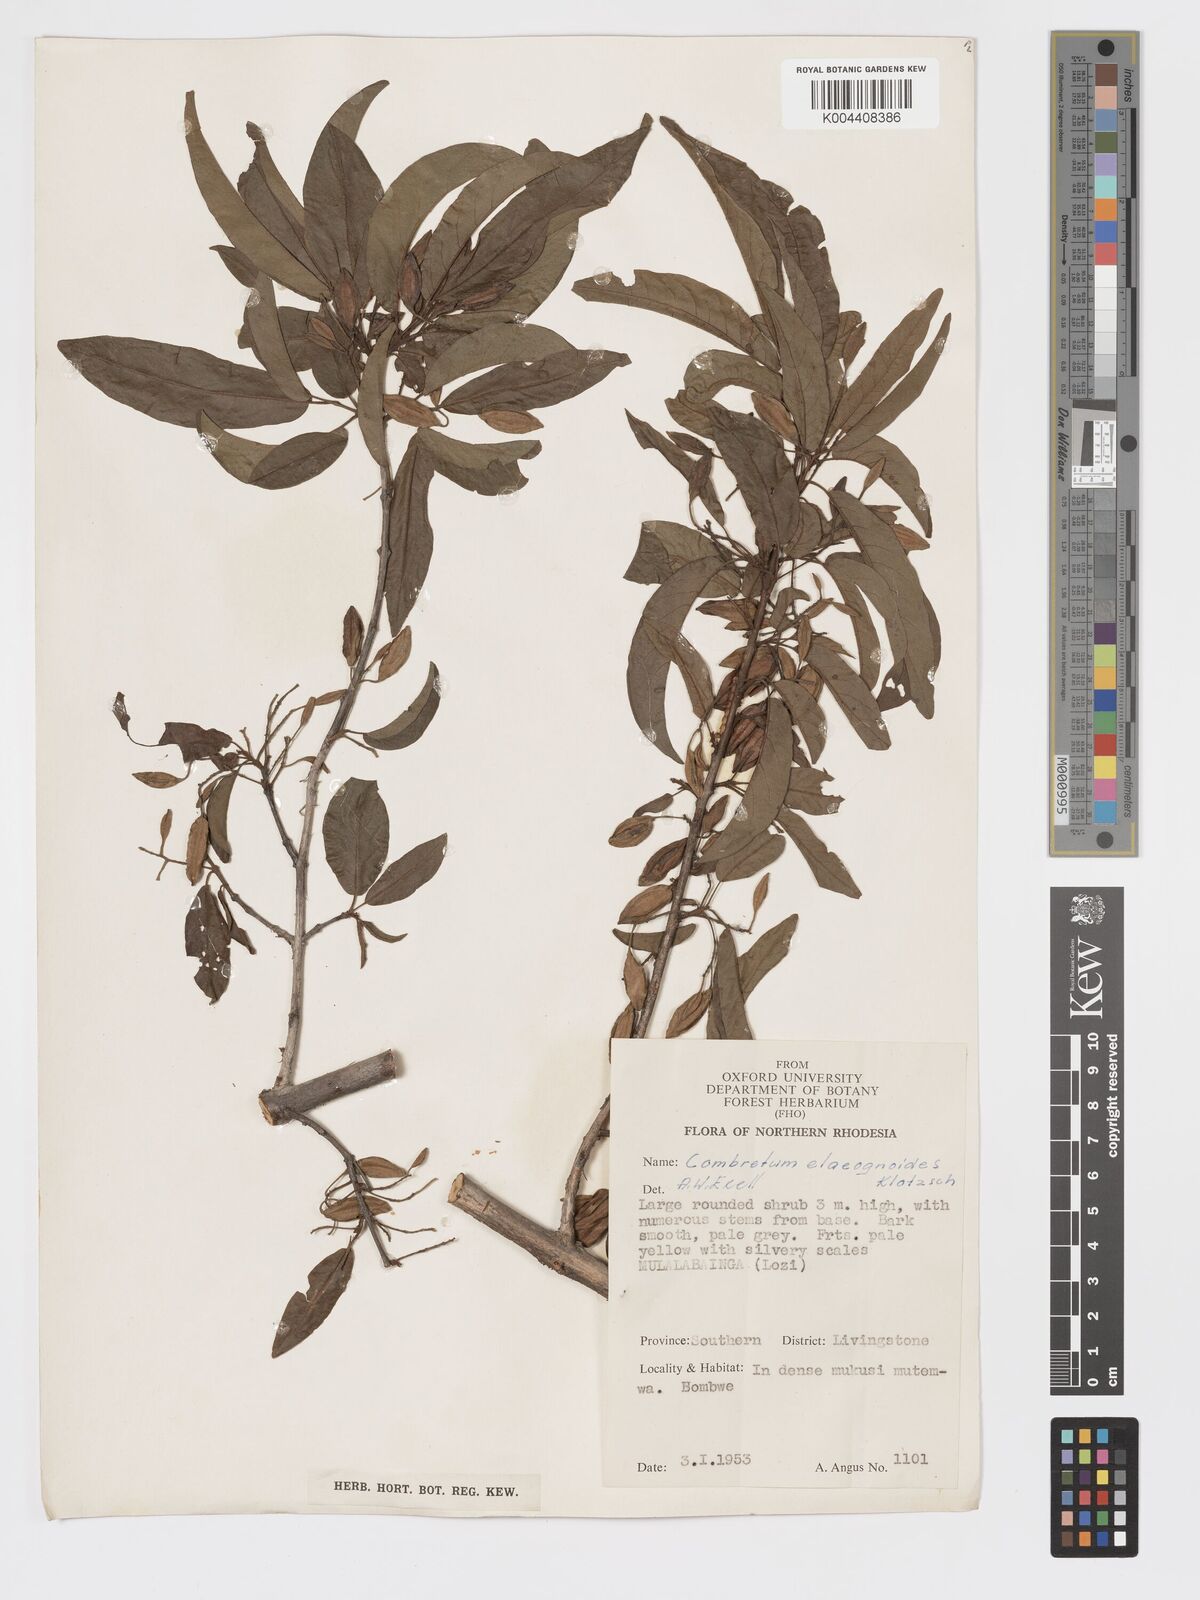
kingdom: Plantae
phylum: Tracheophyta
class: Magnoliopsida
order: Myrtales
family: Combretaceae
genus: Combretum
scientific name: Combretum elaeagnoides
